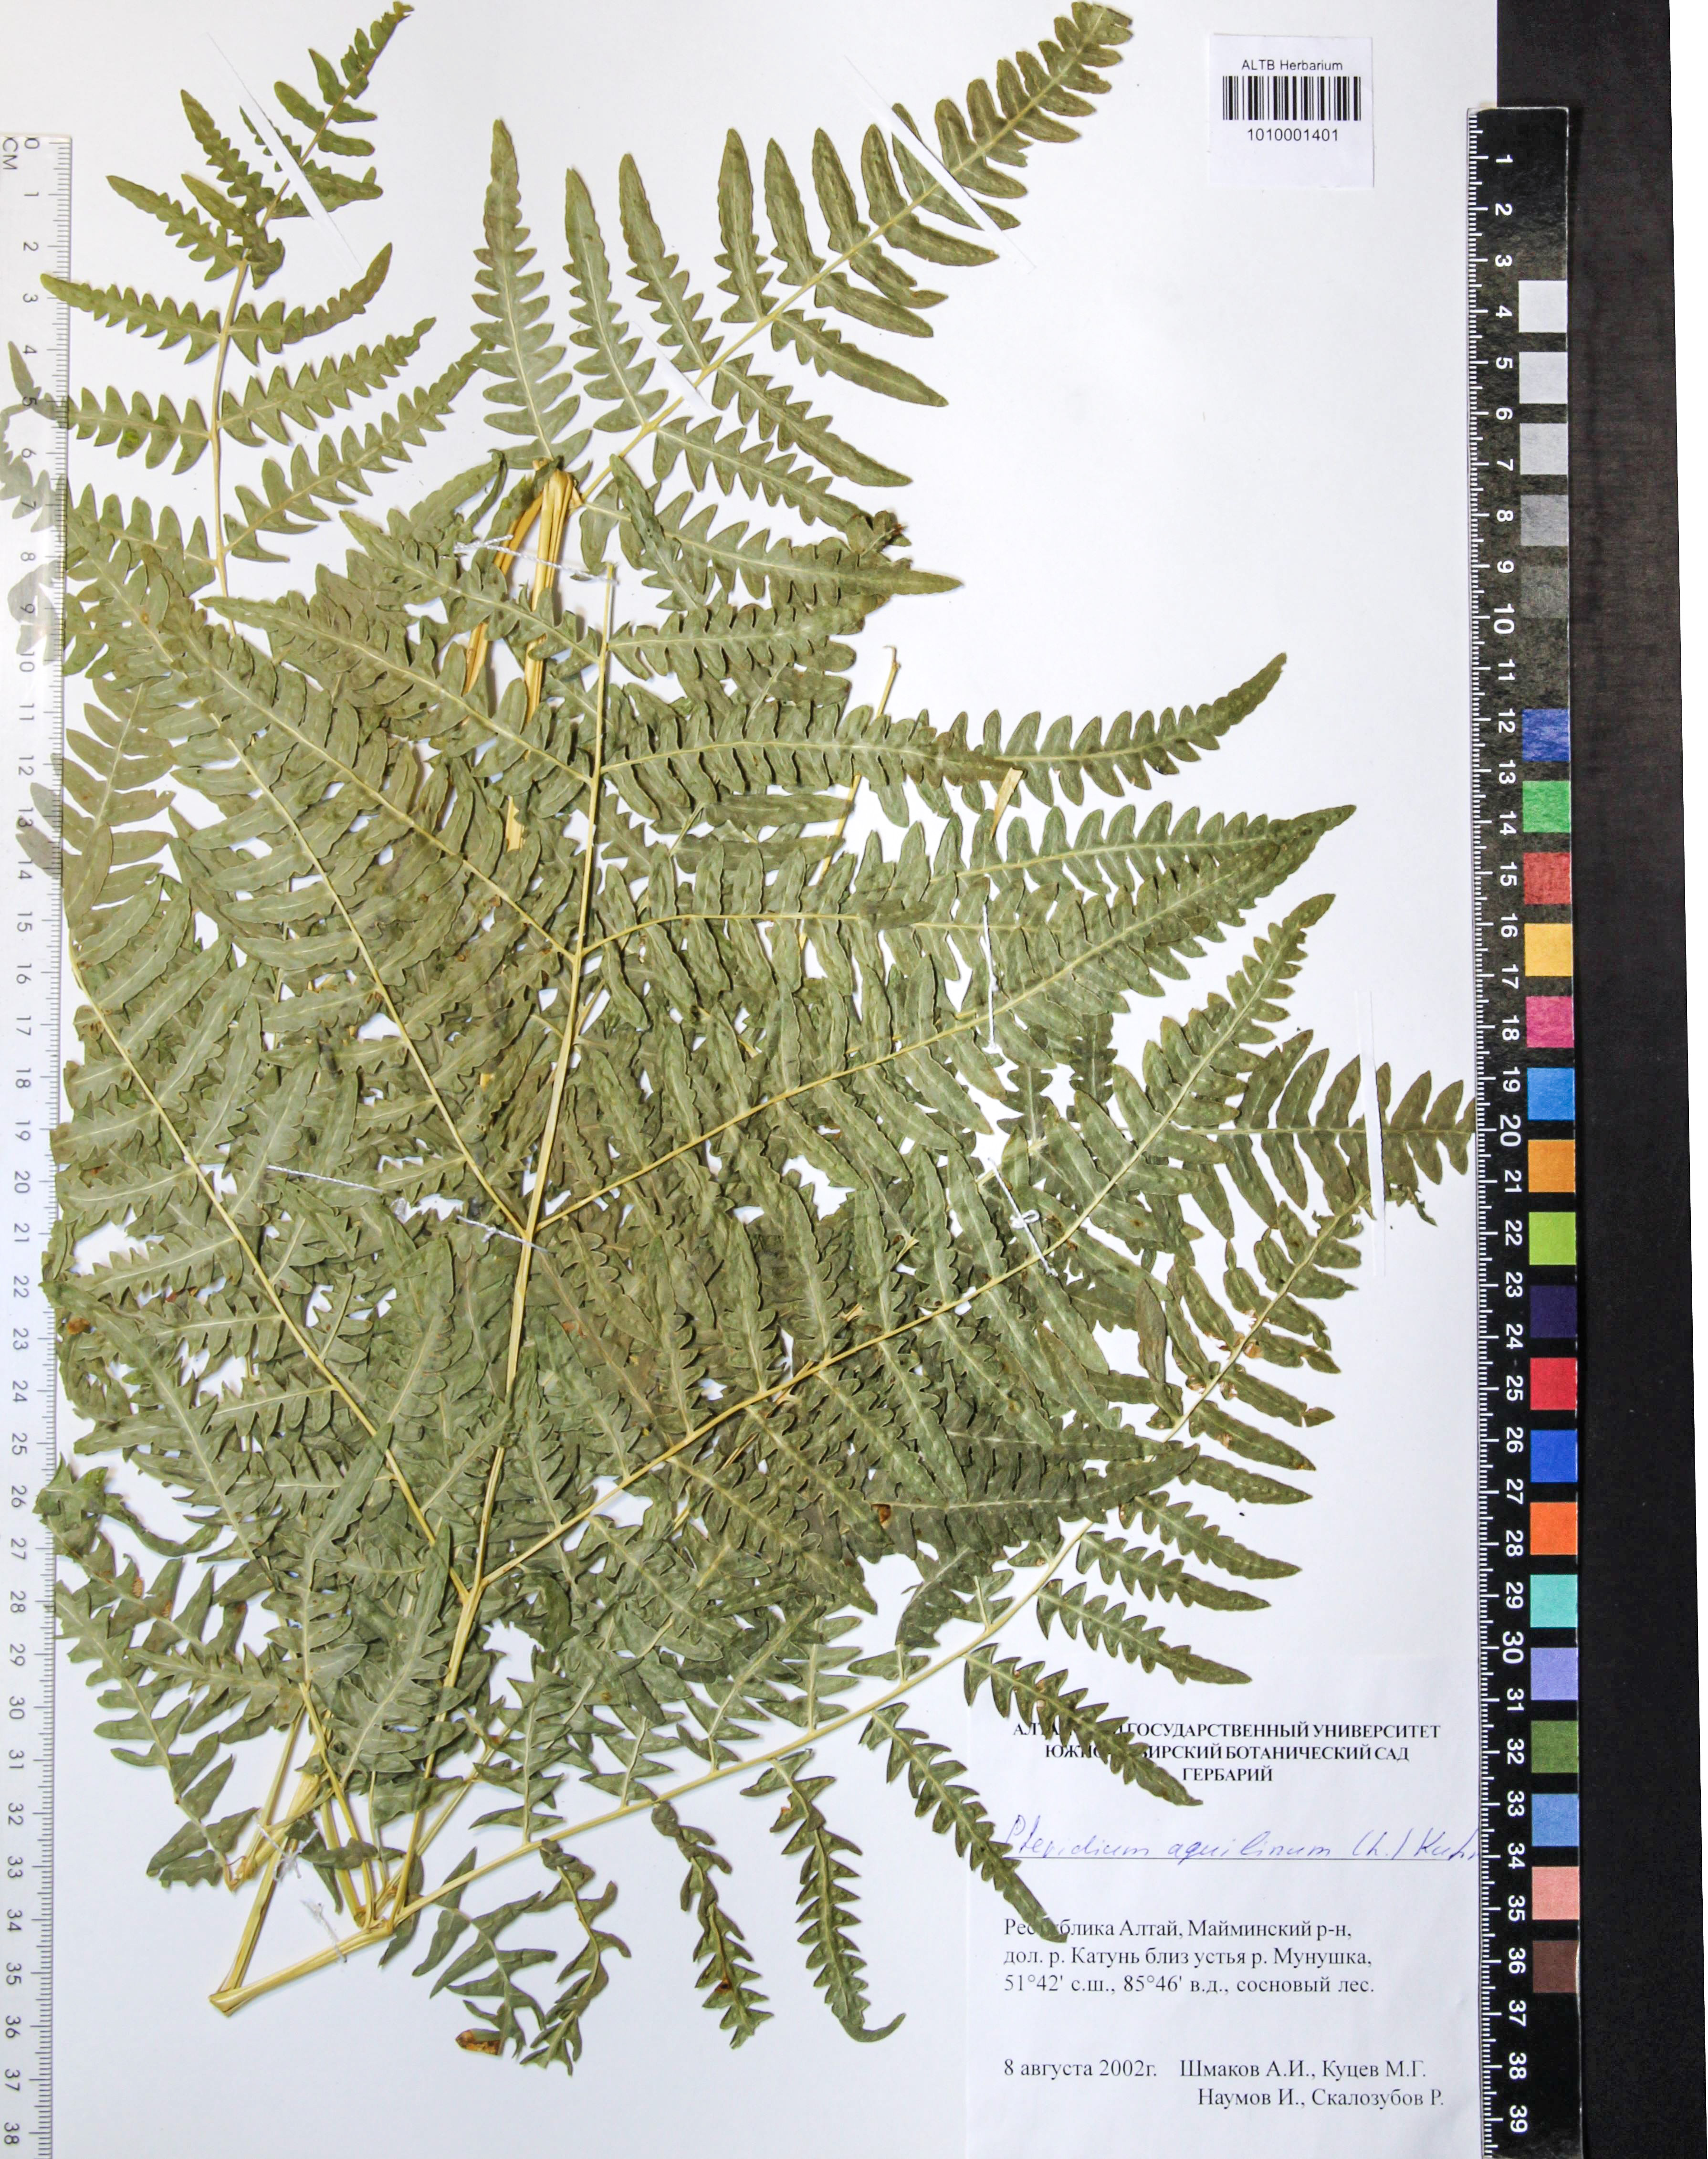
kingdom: Plantae
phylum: Tracheophyta
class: Polypodiopsida
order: Polypodiales
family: Dennstaedtiaceae
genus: Pteridium
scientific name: Pteridium aquilinum
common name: Bracken
